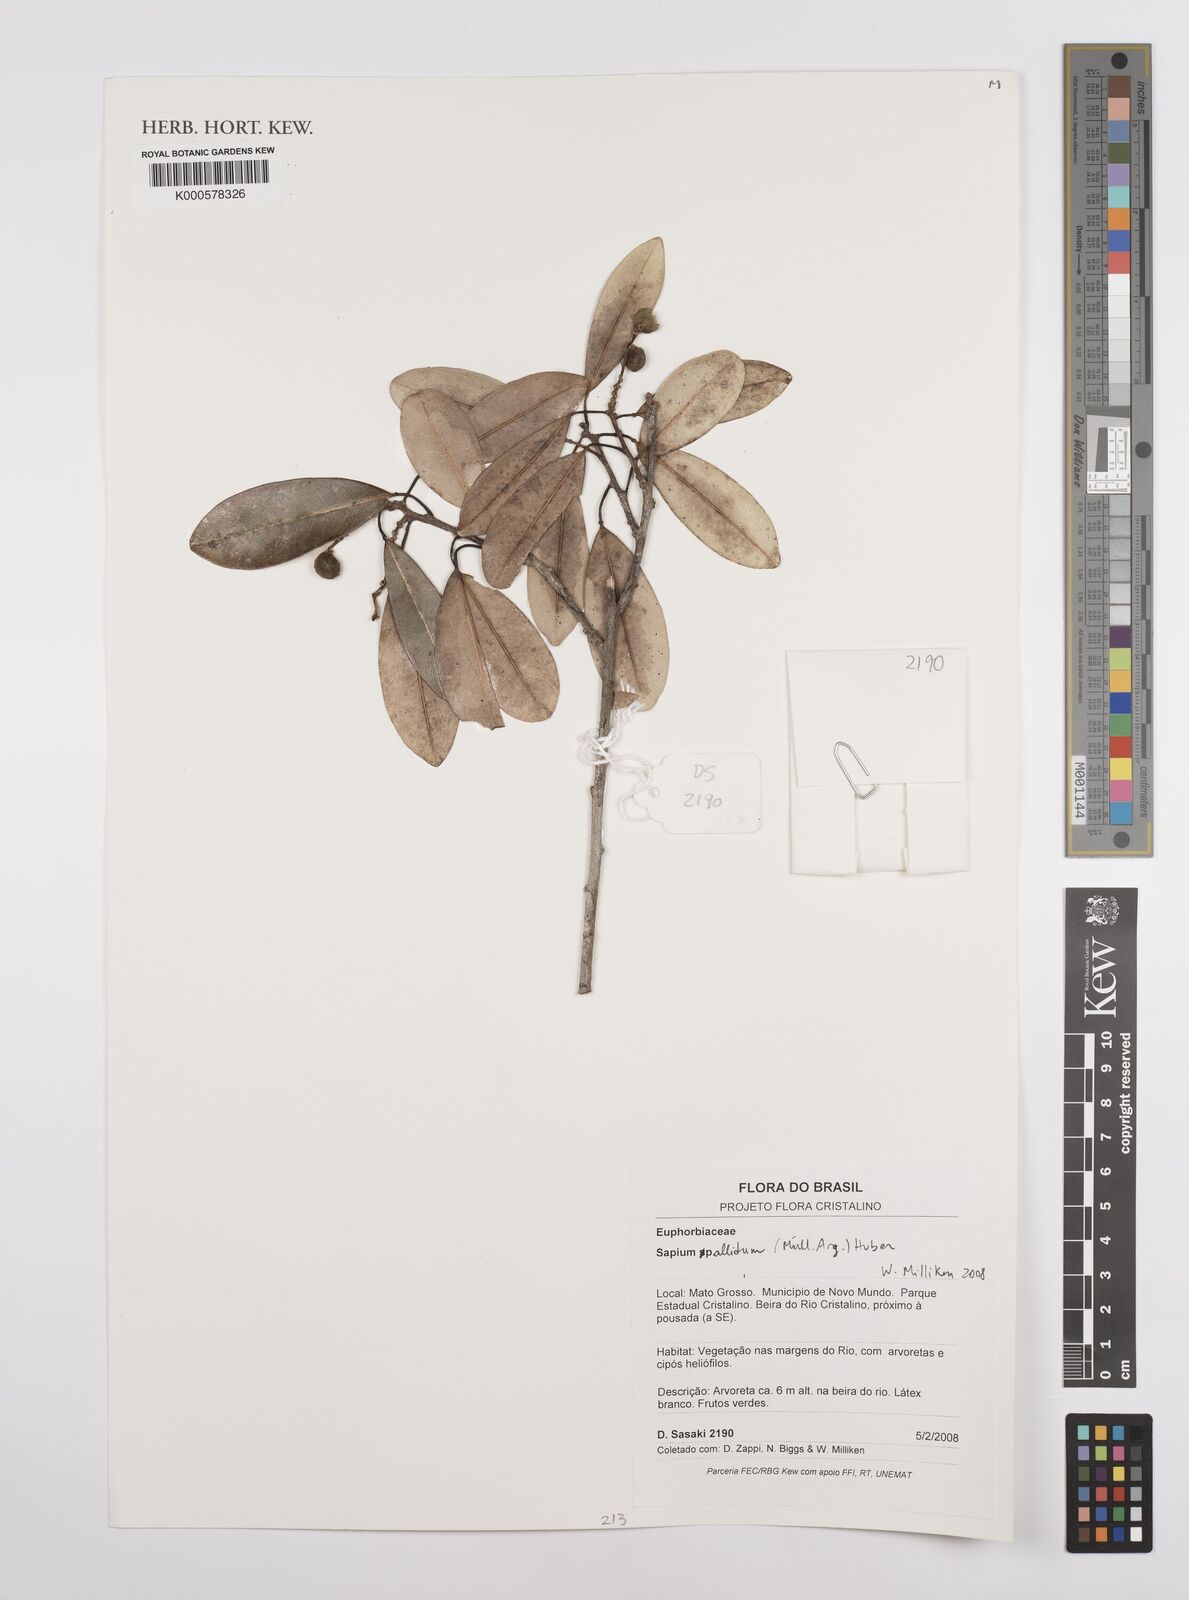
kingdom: Plantae
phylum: Tracheophyta
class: Magnoliopsida
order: Malpighiales
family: Euphorbiaceae
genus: Sapium
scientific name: Sapium
